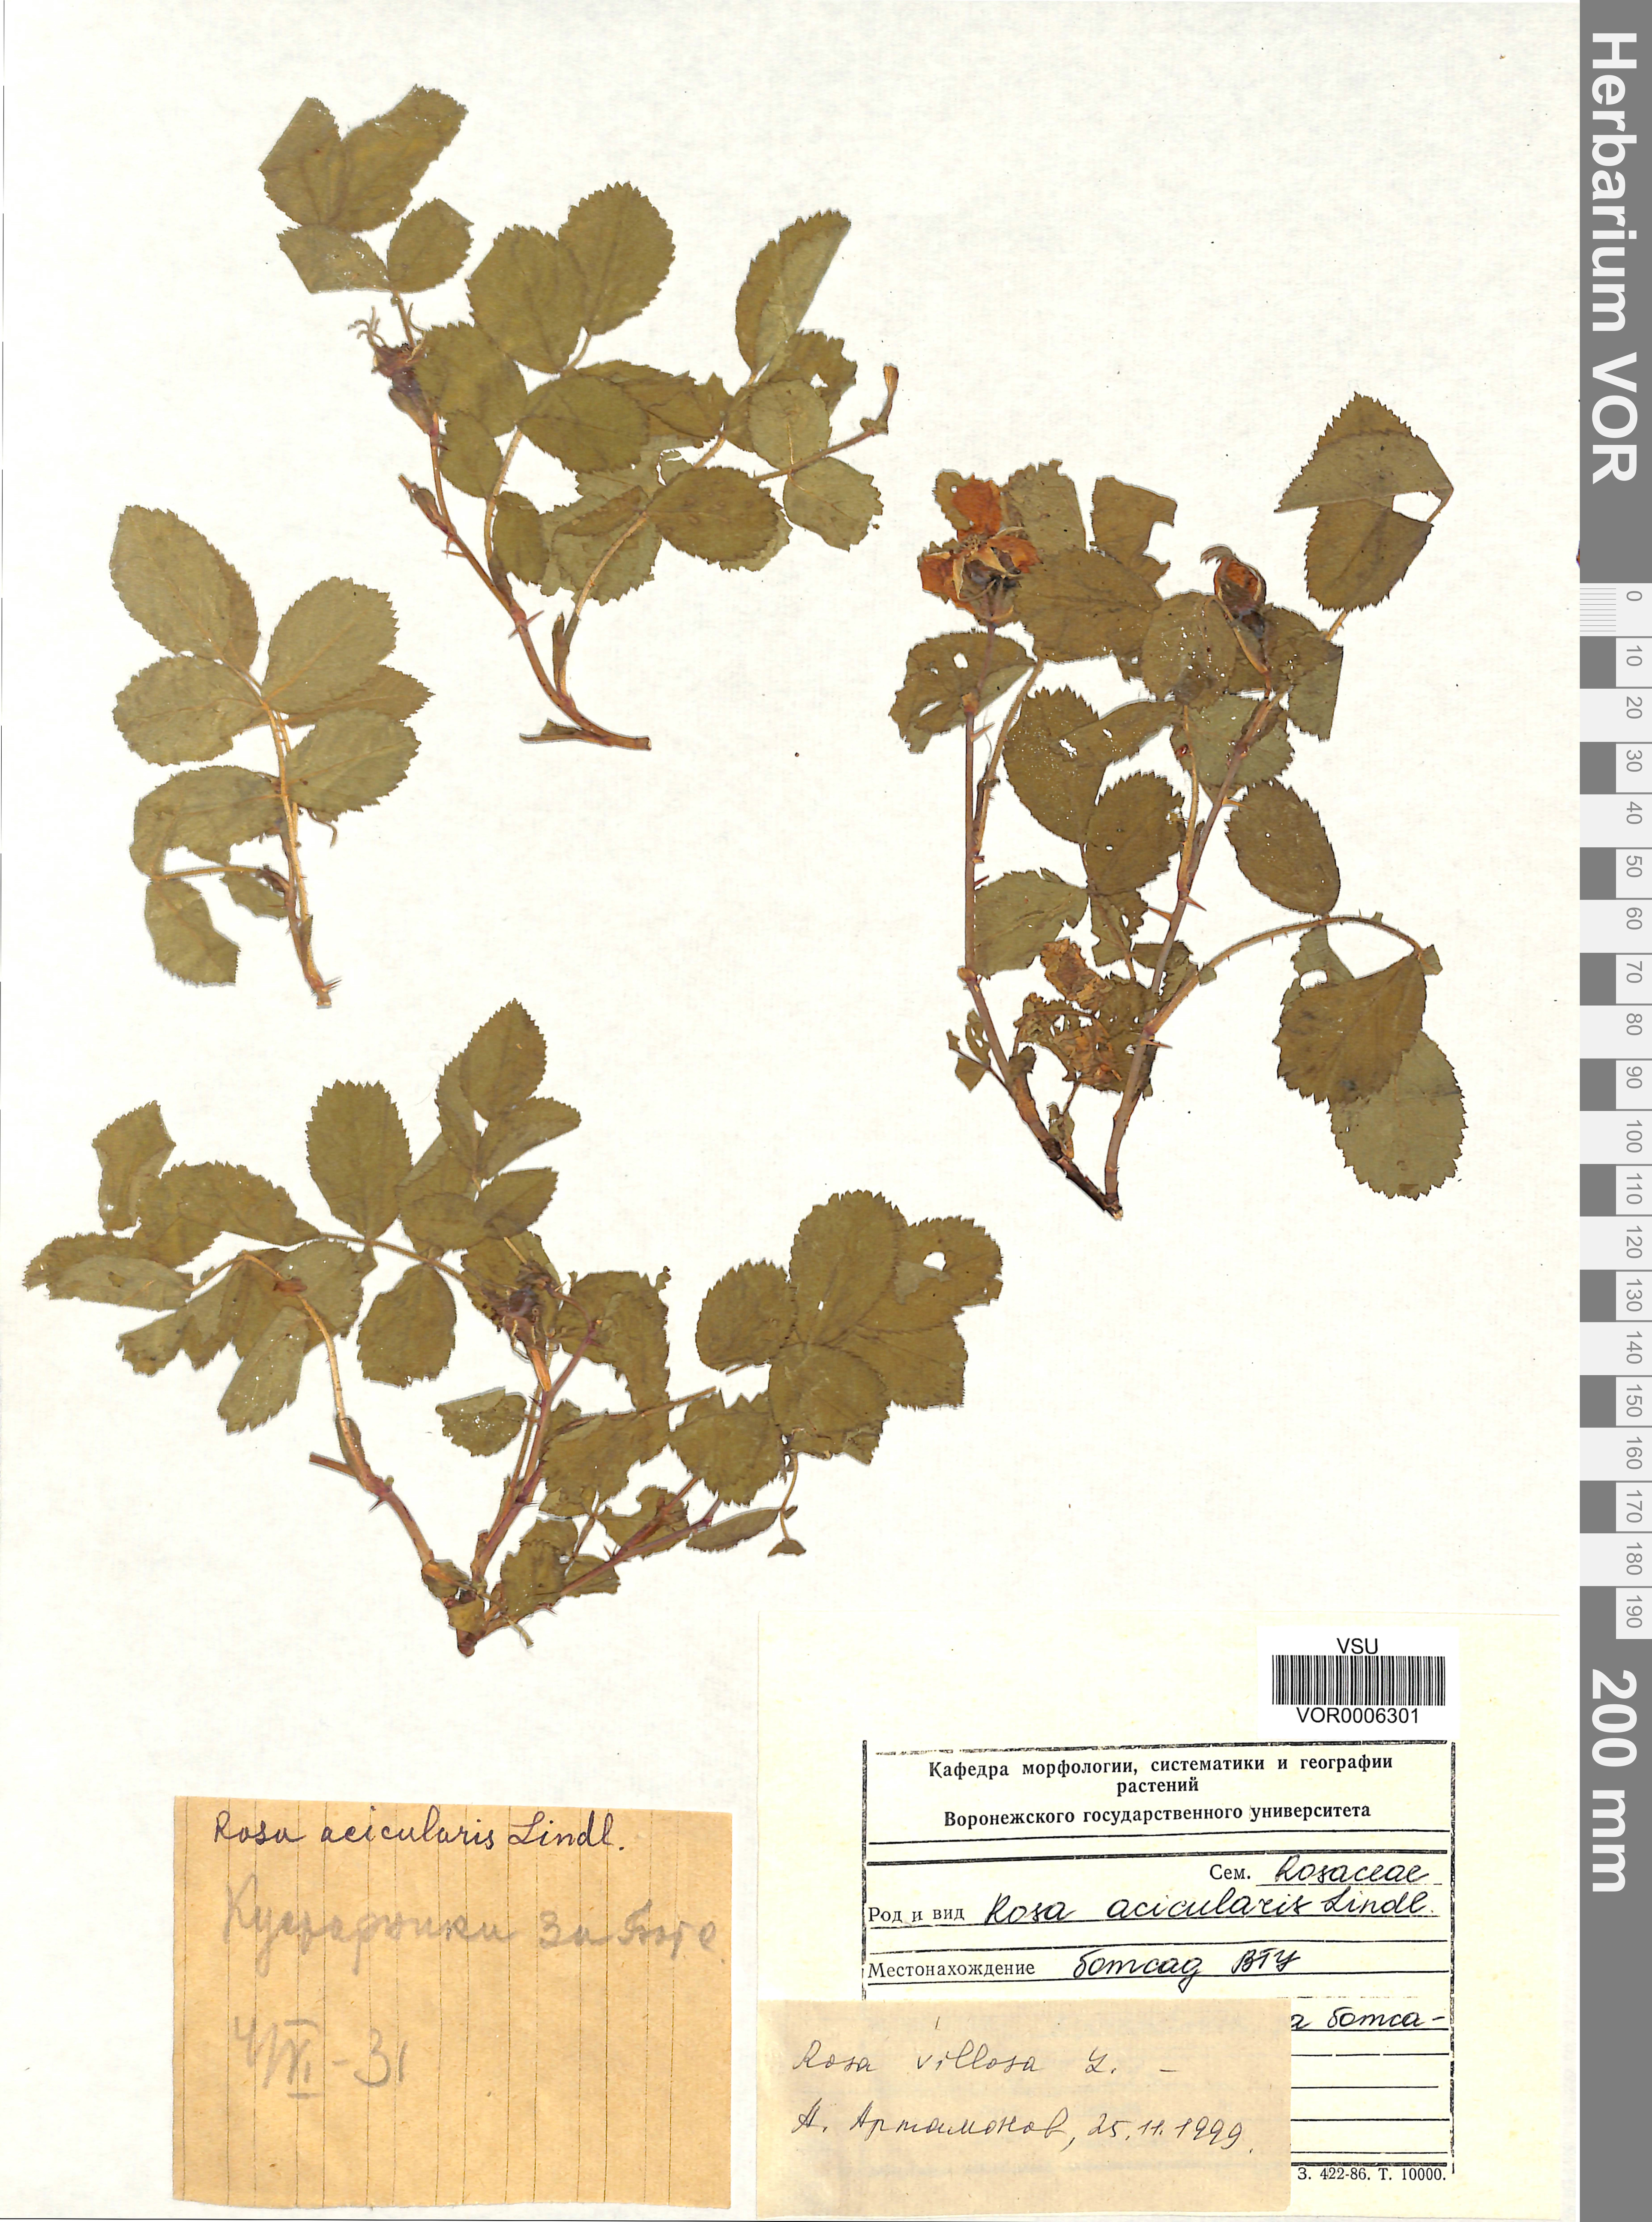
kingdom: Plantae
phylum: Tracheophyta
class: Magnoliopsida
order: Rosales
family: Rosaceae
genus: Rosa
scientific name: Rosa villosa
